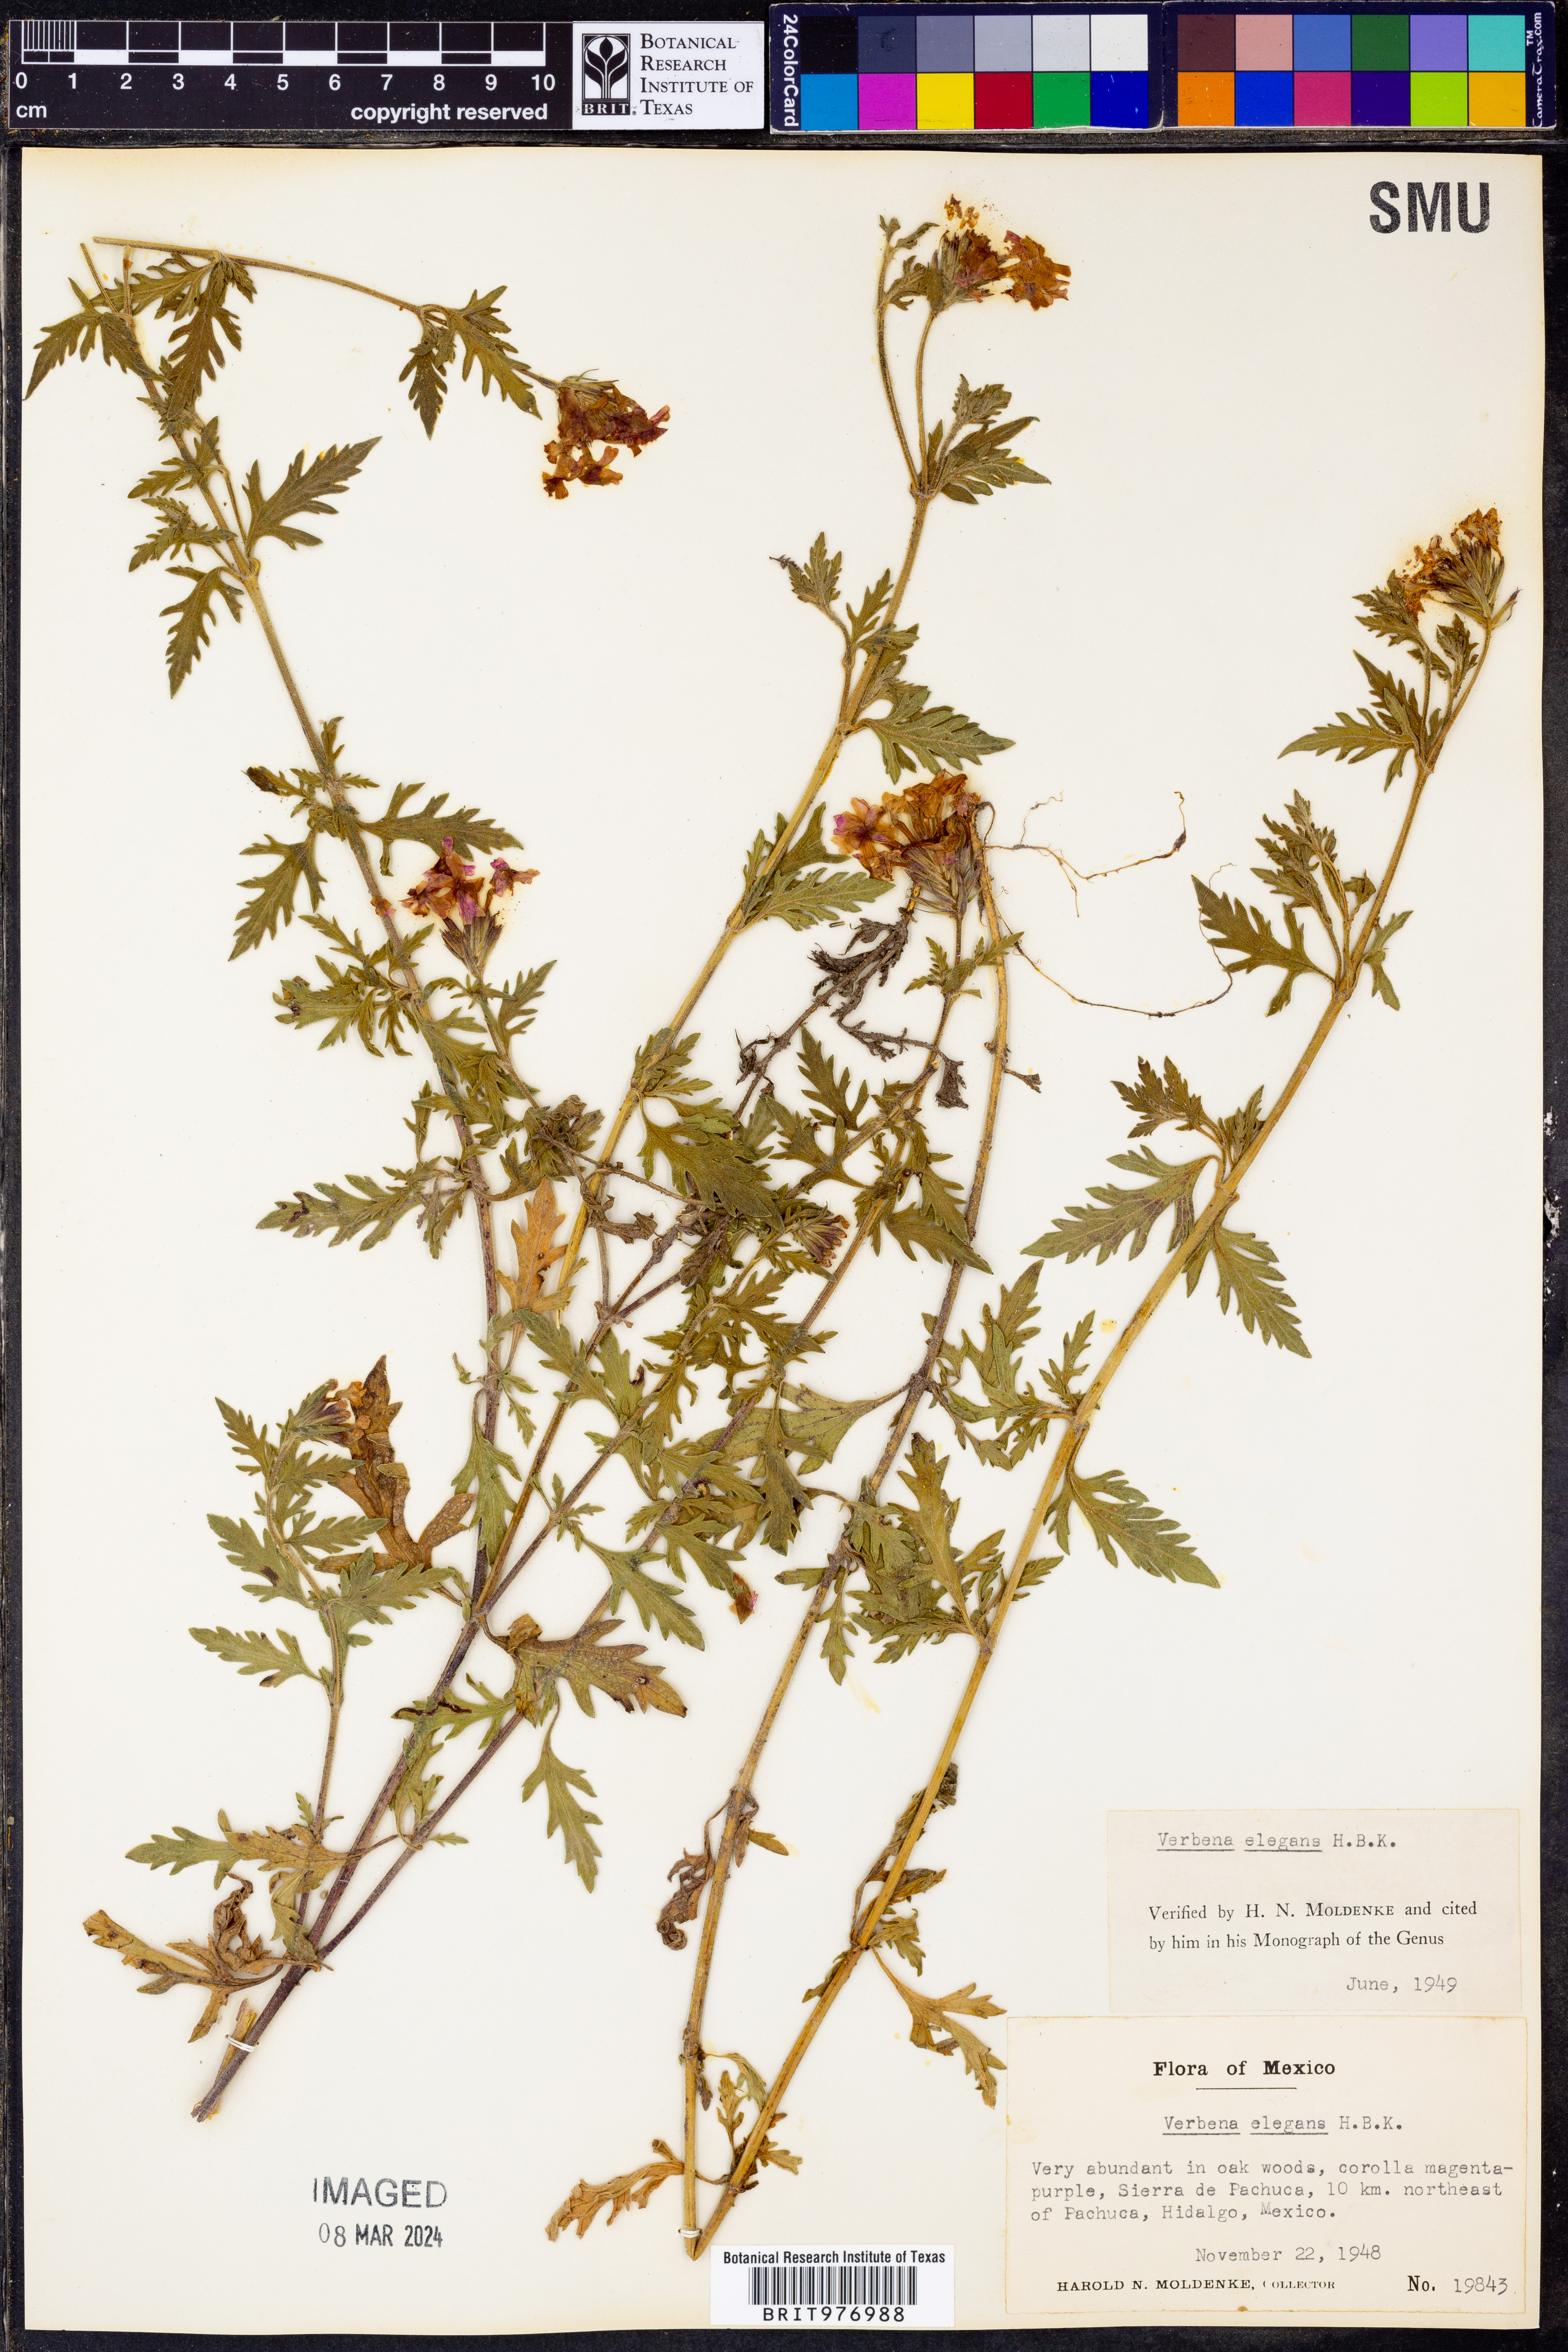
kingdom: Plantae
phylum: Tracheophyta
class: Magnoliopsida
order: Lamiales
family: Verbenaceae
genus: Verbena
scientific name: Verbena elegans
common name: Elegant vervain
